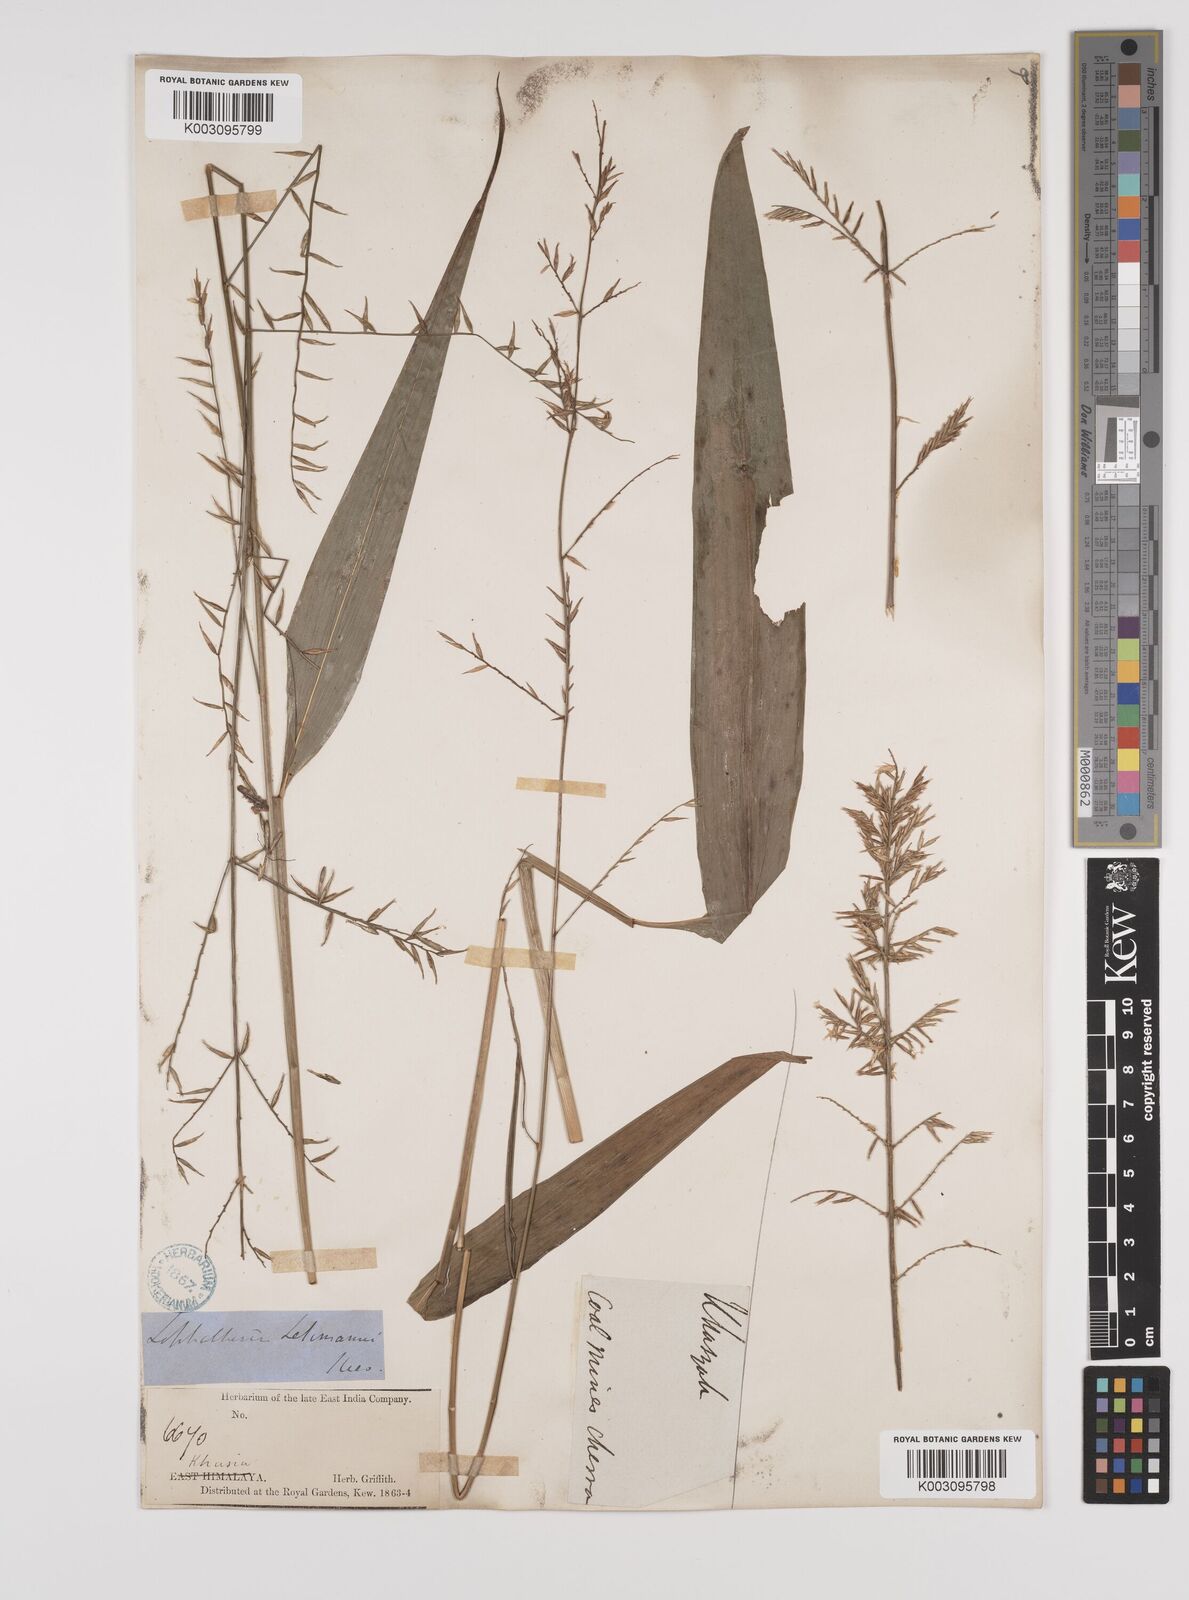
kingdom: Plantae
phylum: Tracheophyta
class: Liliopsida
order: Poales
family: Poaceae
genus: Lophatherum
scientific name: Lophatherum gracile
